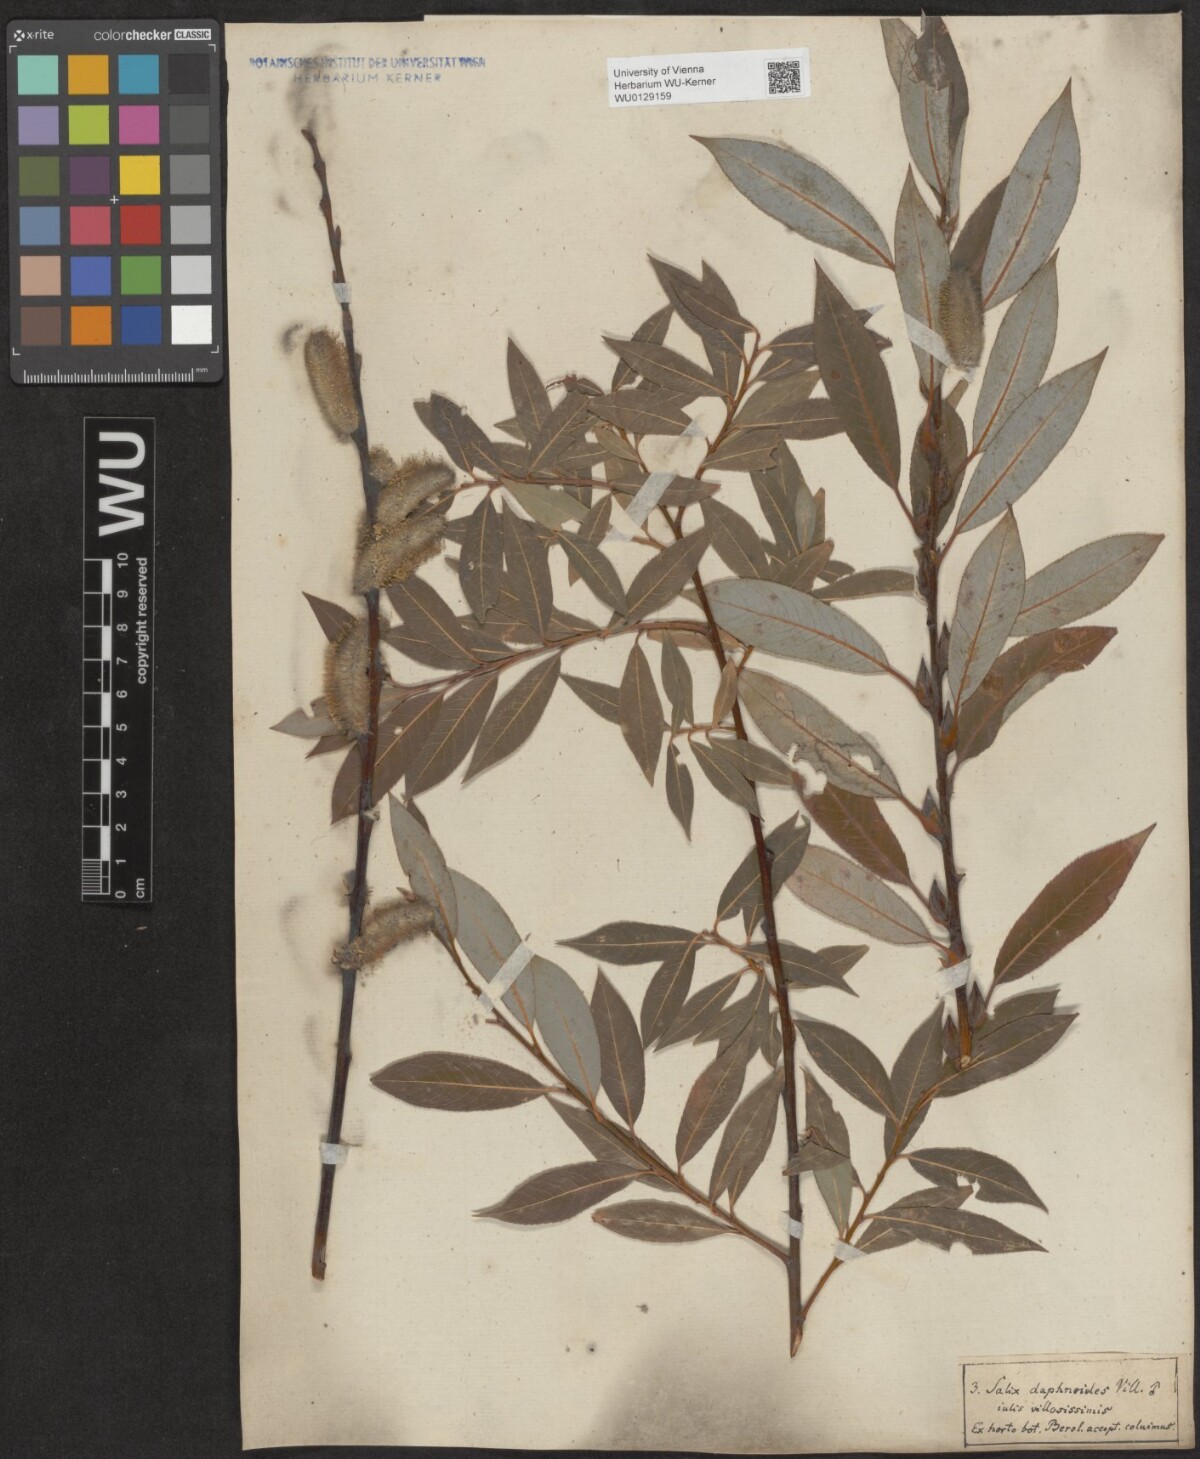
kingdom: Plantae
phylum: Tracheophyta
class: Magnoliopsida
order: Malpighiales
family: Salicaceae
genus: Salix
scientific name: Salix daphnoides
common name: European violet-willow
